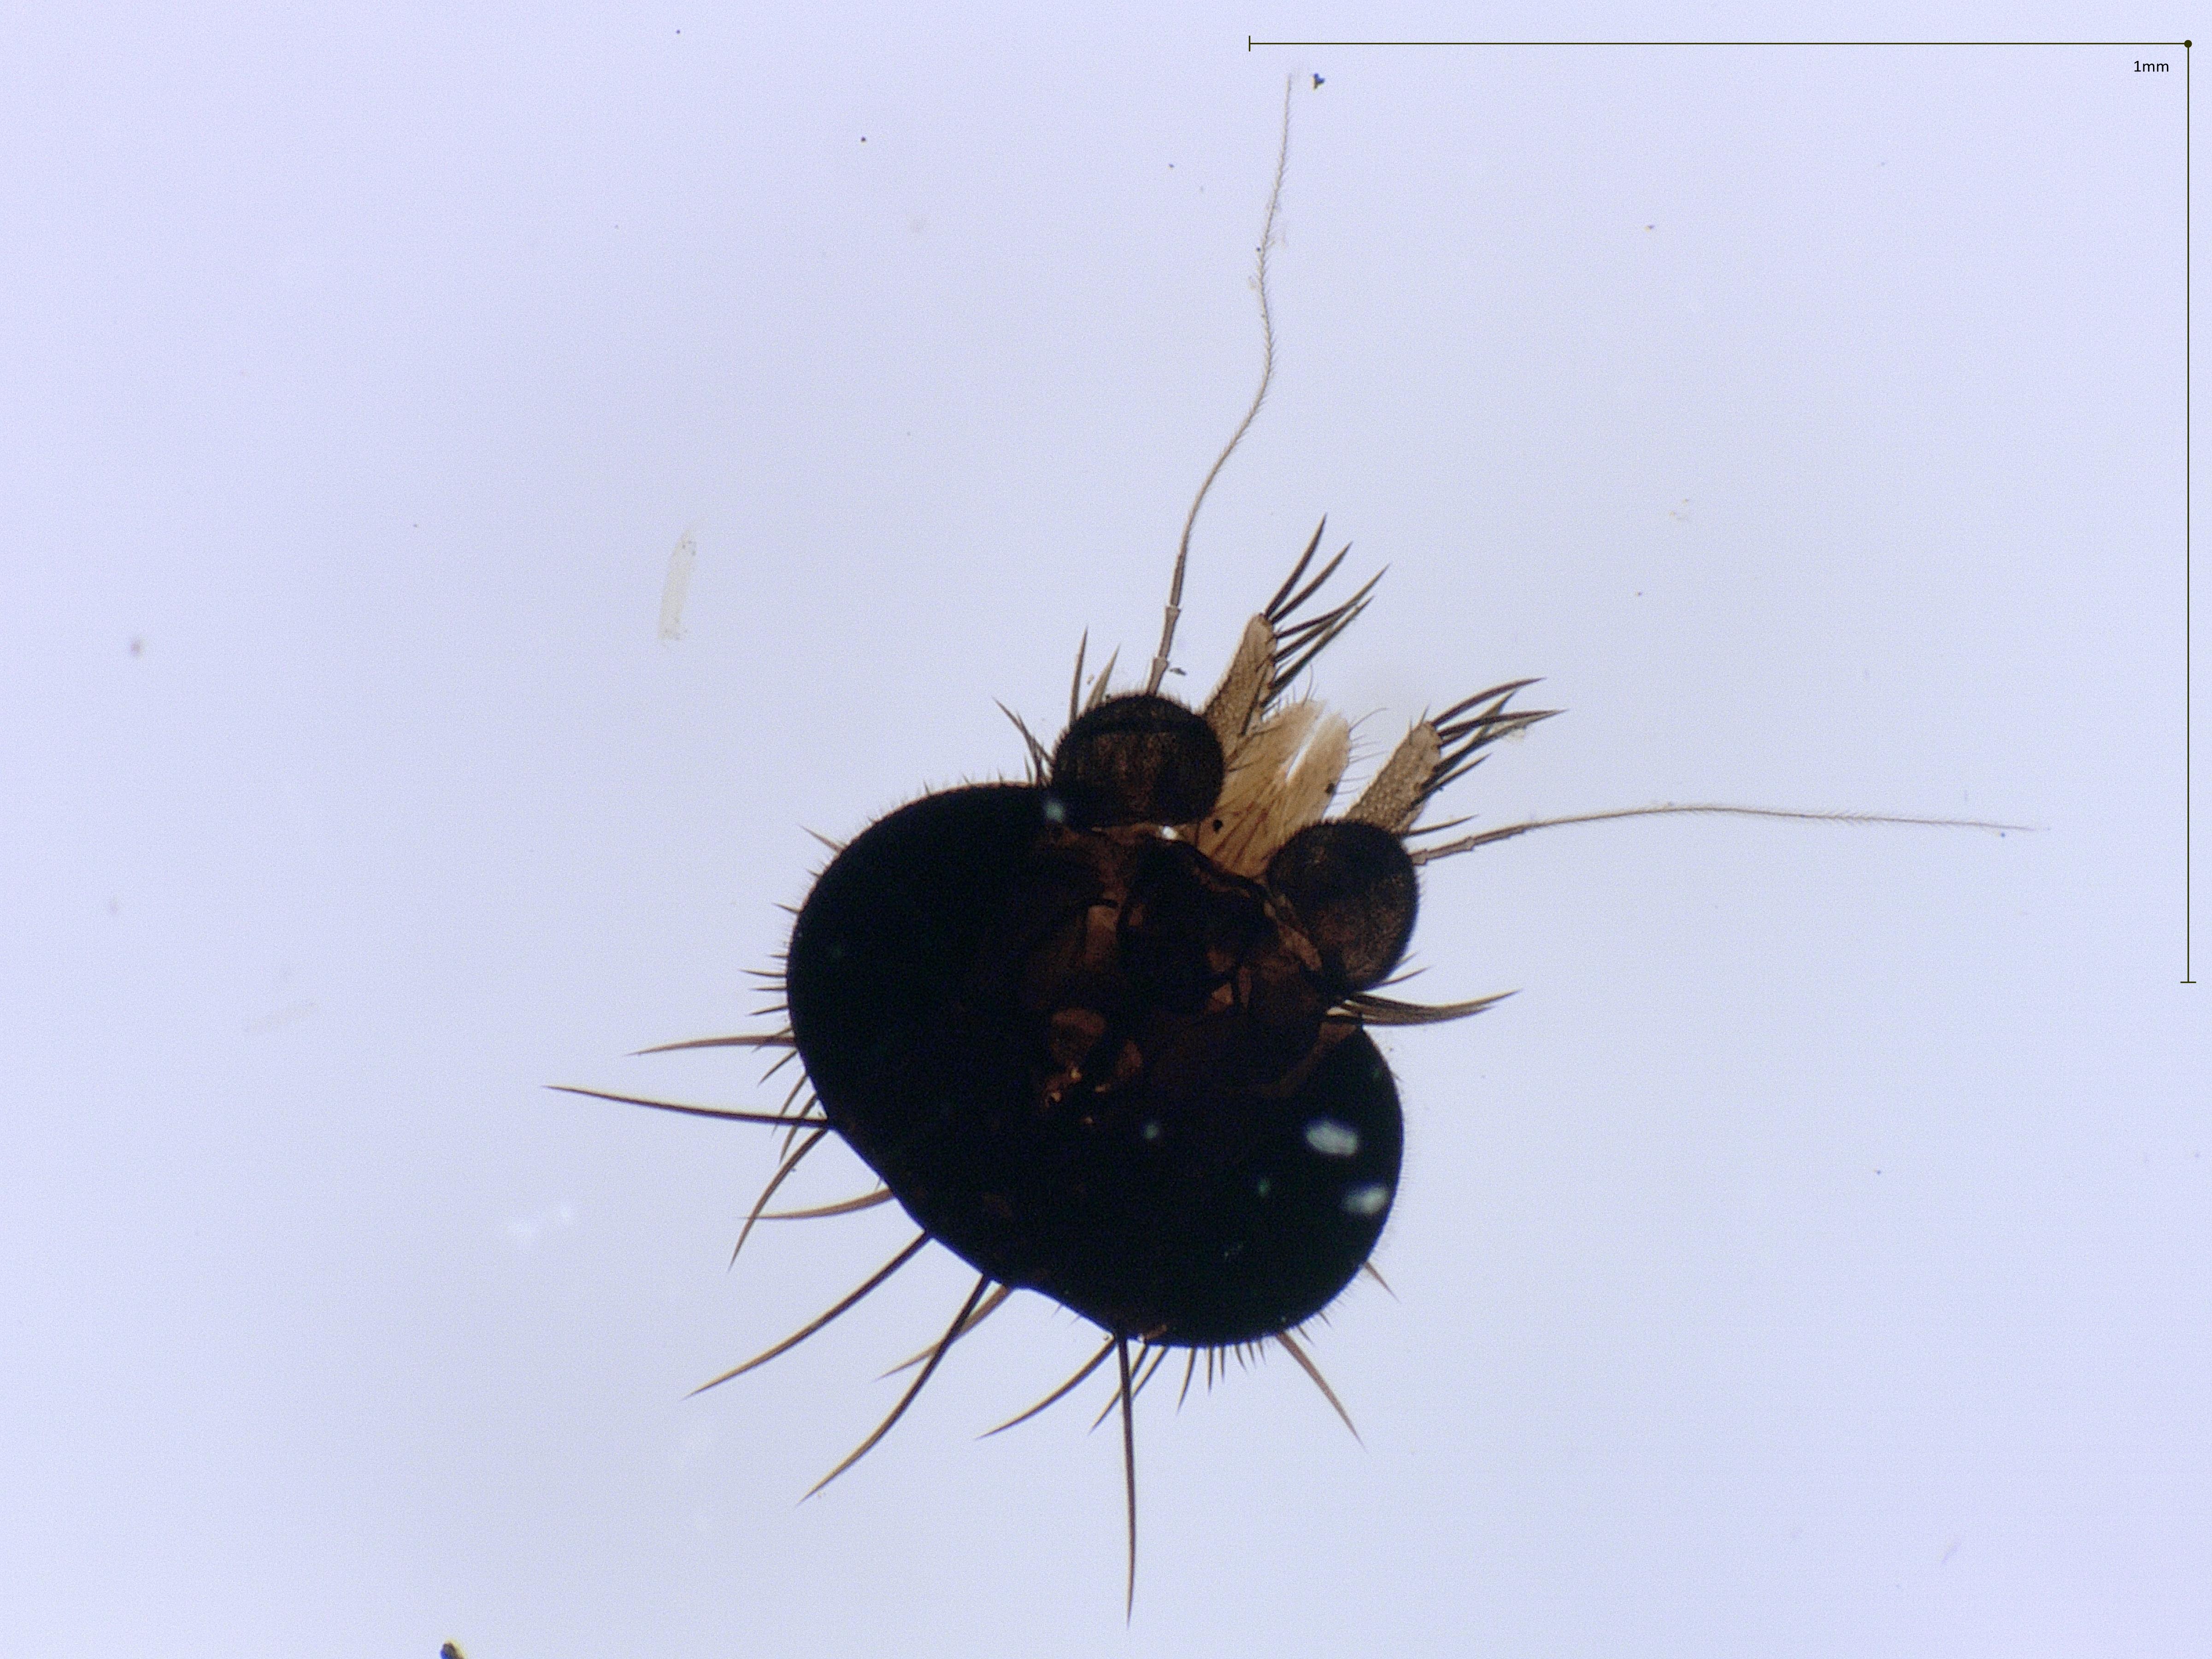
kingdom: Animalia
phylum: Arthropoda
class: Insecta
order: Diptera
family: Phoridae
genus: Megaselia
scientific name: Megaselia tenebricola
